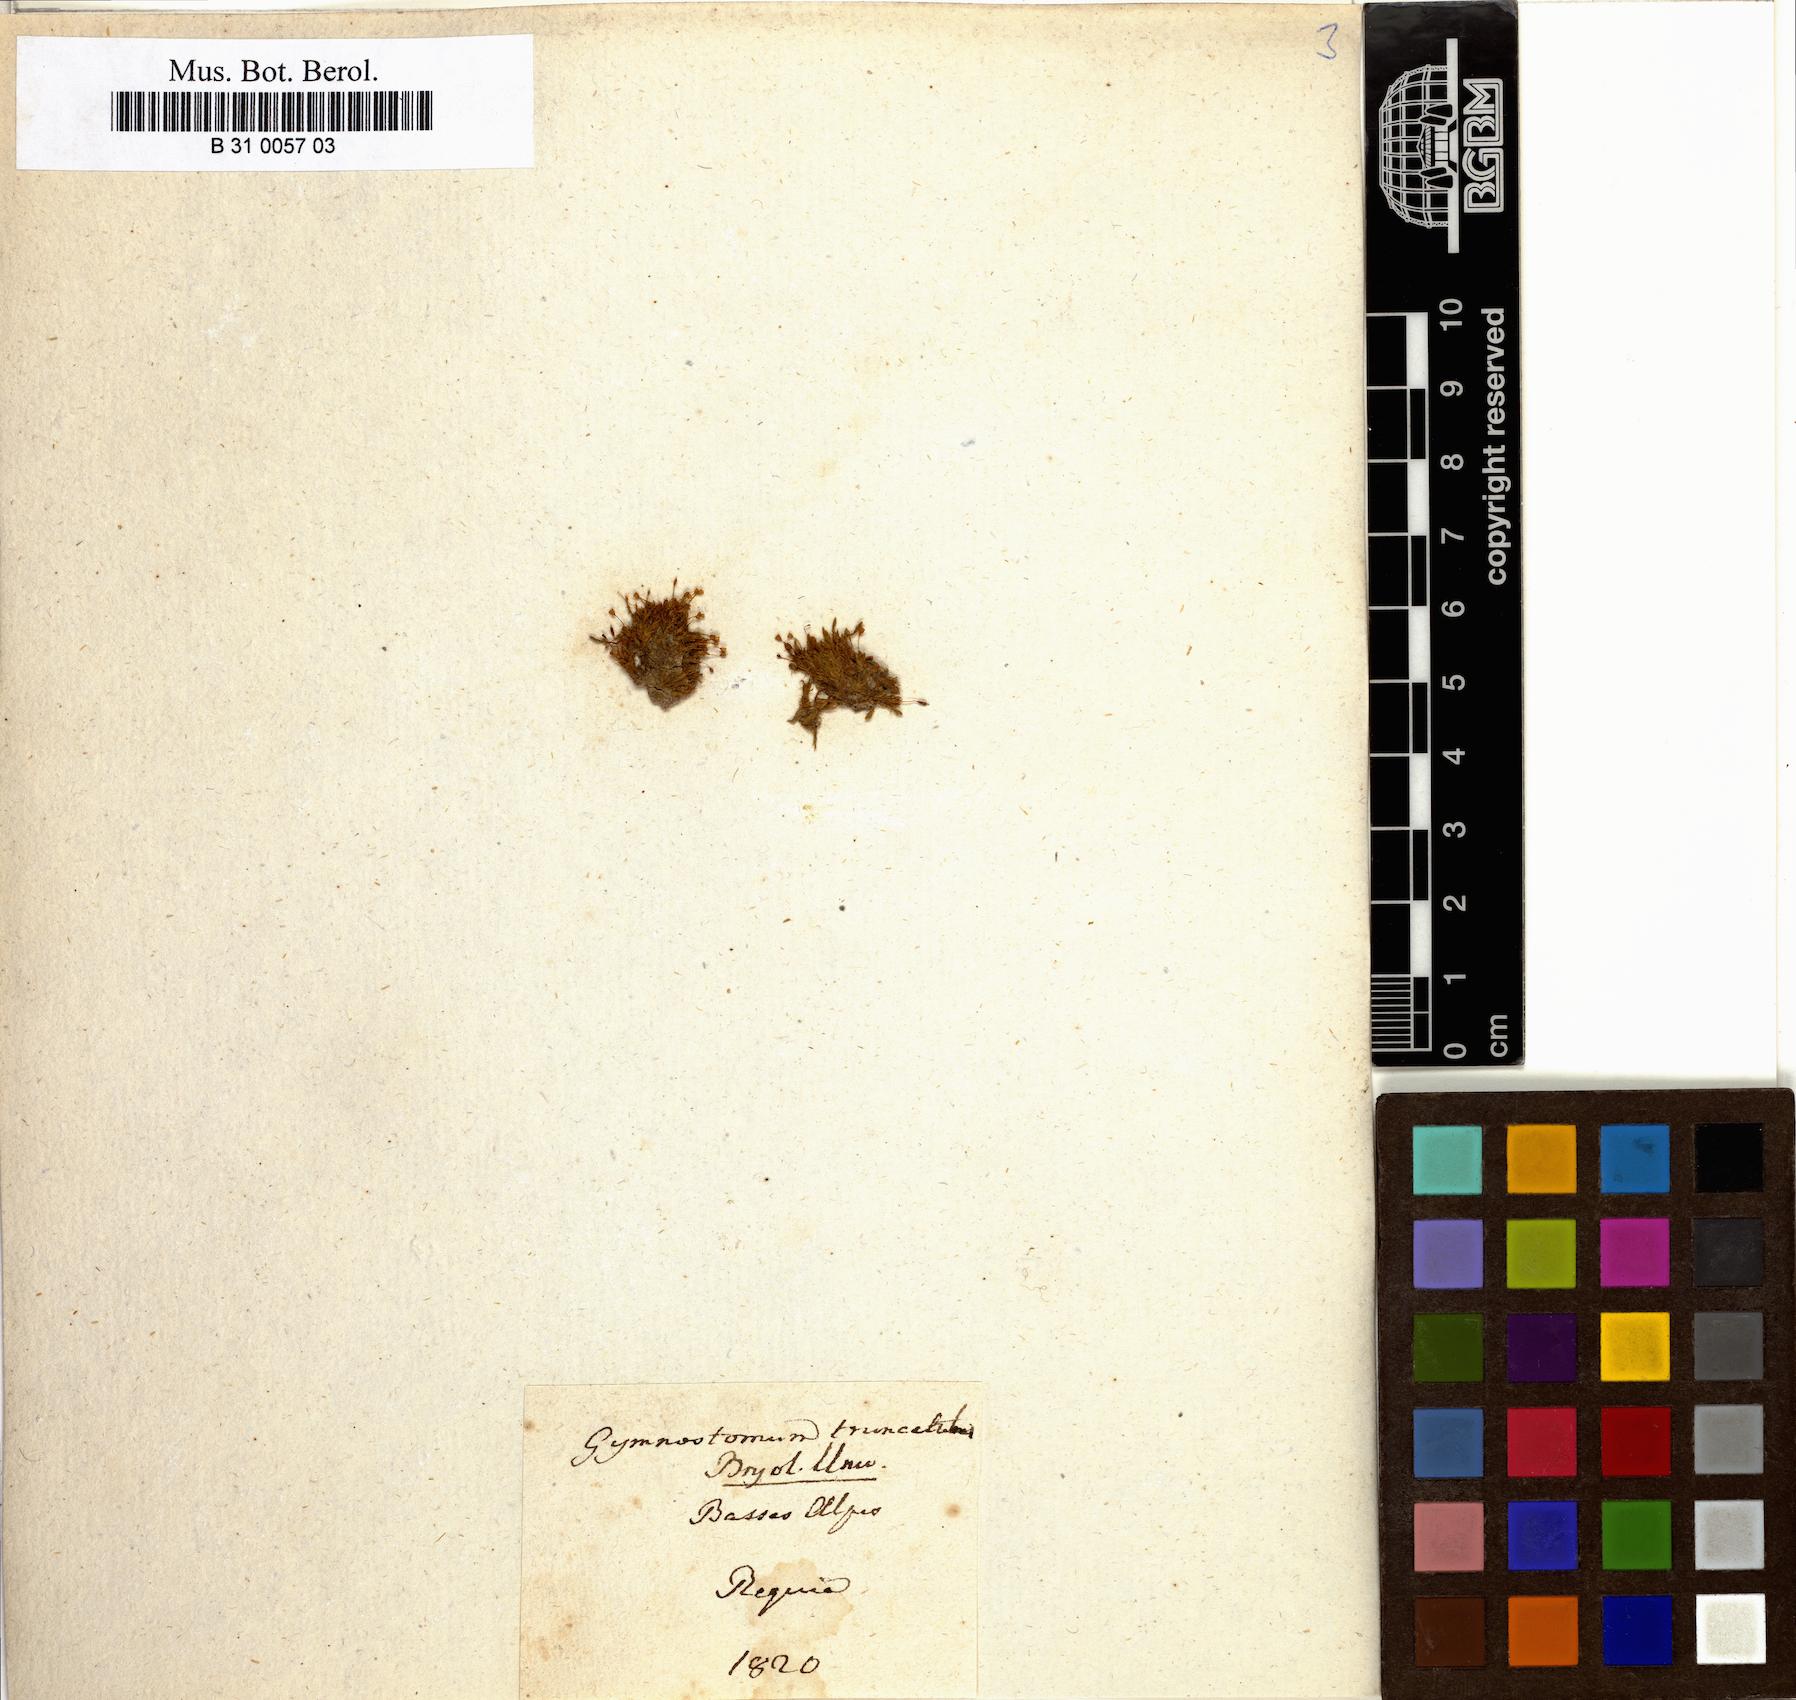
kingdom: Plantae
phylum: Bryophyta
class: Bryopsida
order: Pottiales
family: Pottiaceae
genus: Tortula
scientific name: Tortula truncata
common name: Truncated screw moss
